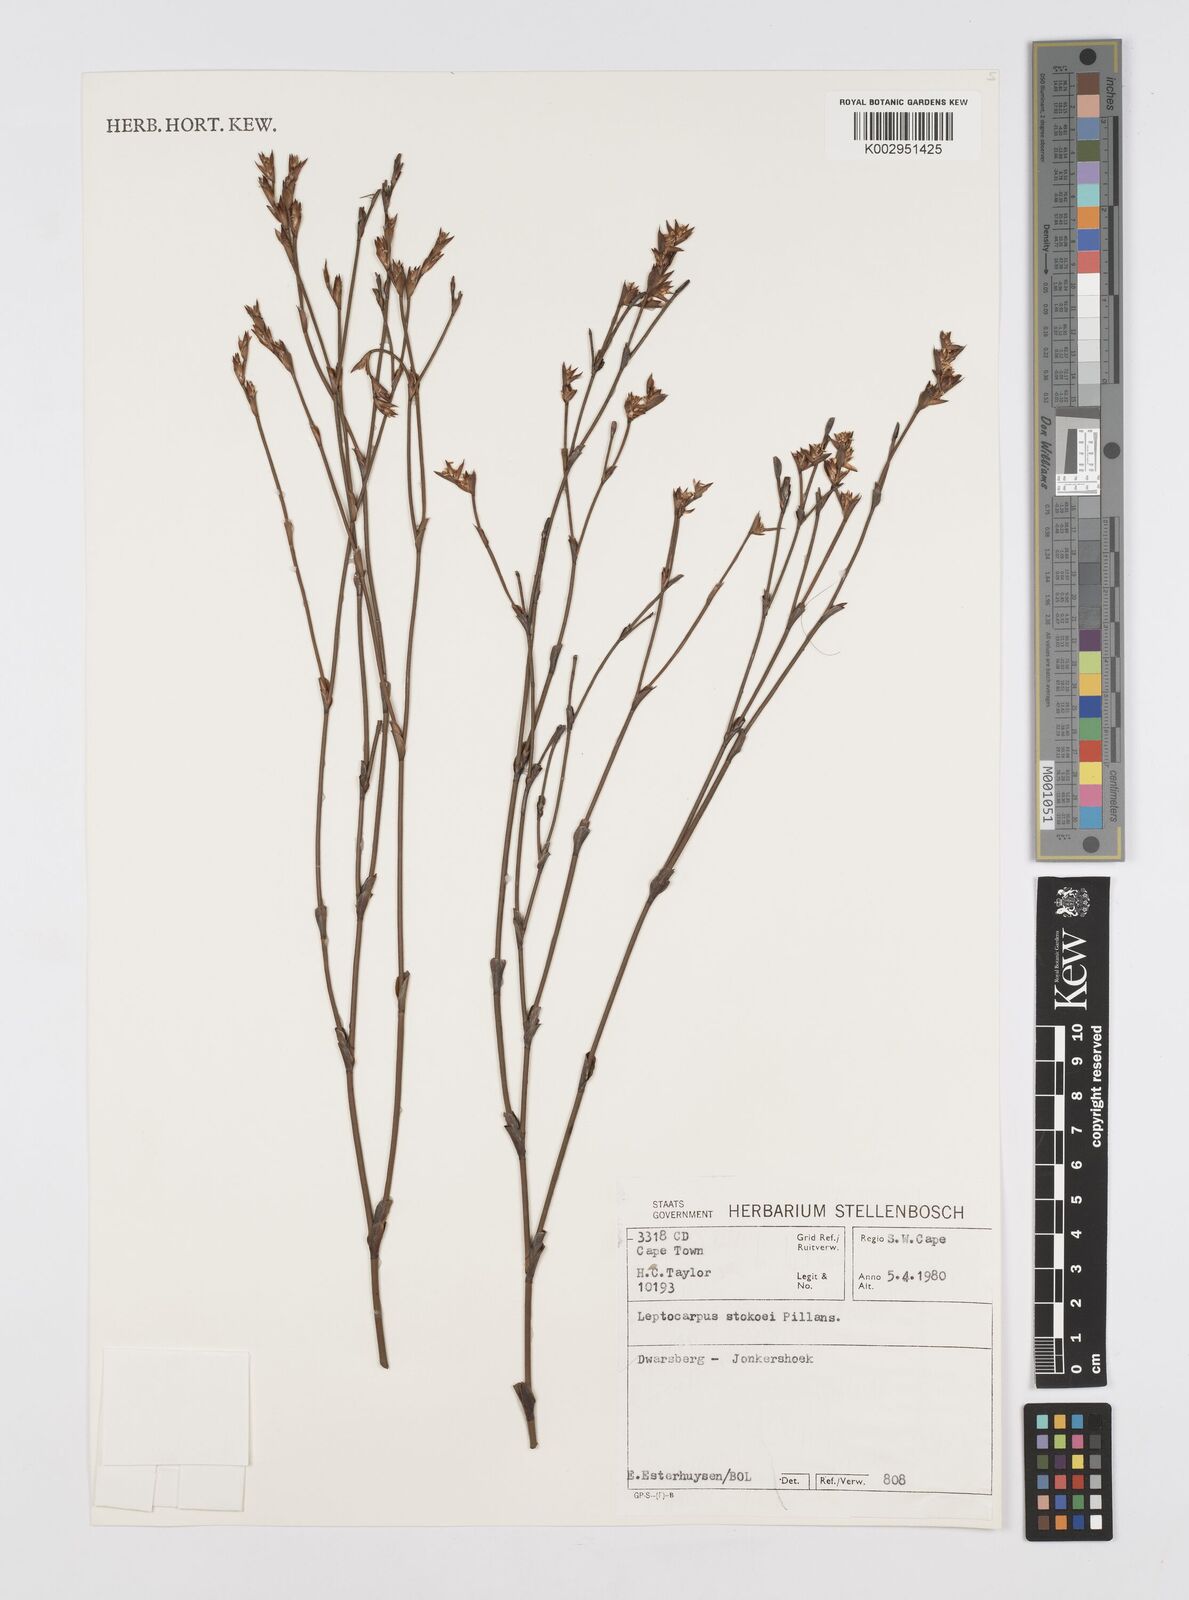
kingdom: Plantae
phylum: Tracheophyta
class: Liliopsida
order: Poales
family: Restionaceae
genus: Restio
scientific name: Restio pillansii
